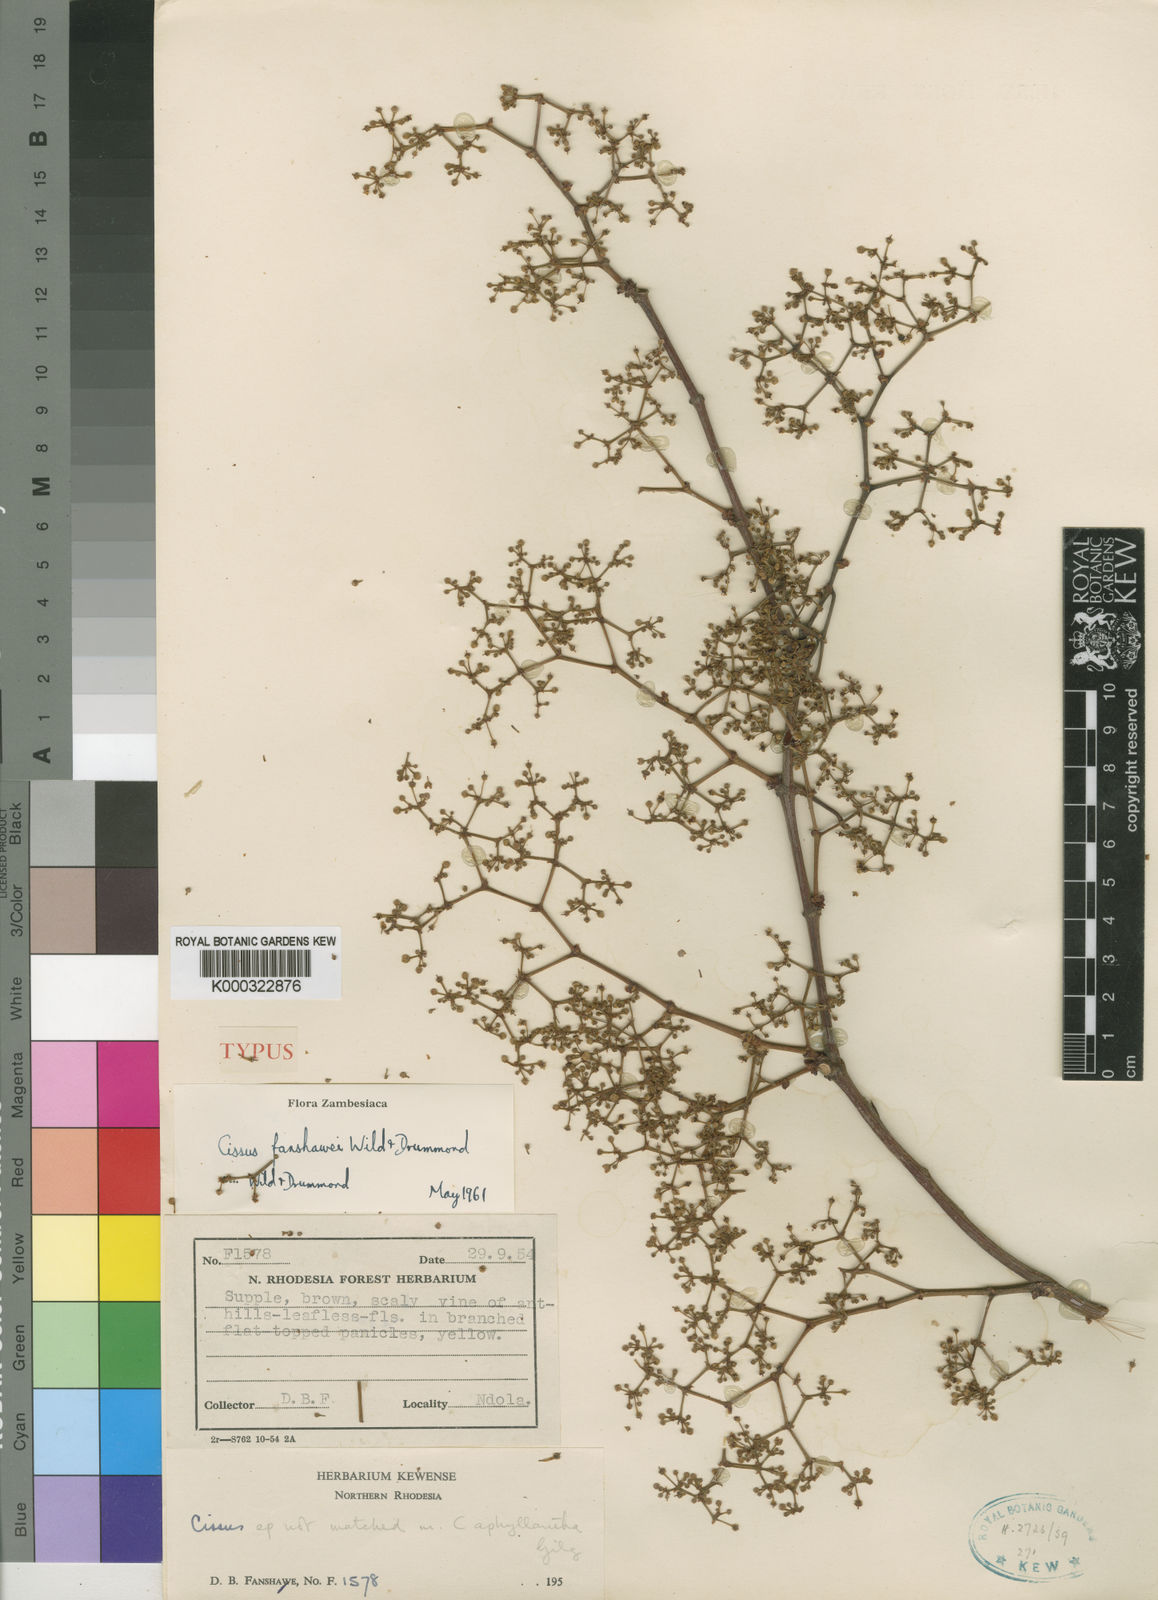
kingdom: Plantae
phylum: Tracheophyta
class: Magnoliopsida
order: Vitales
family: Vitaceae
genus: Cissus
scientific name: Cissus fanshawei
